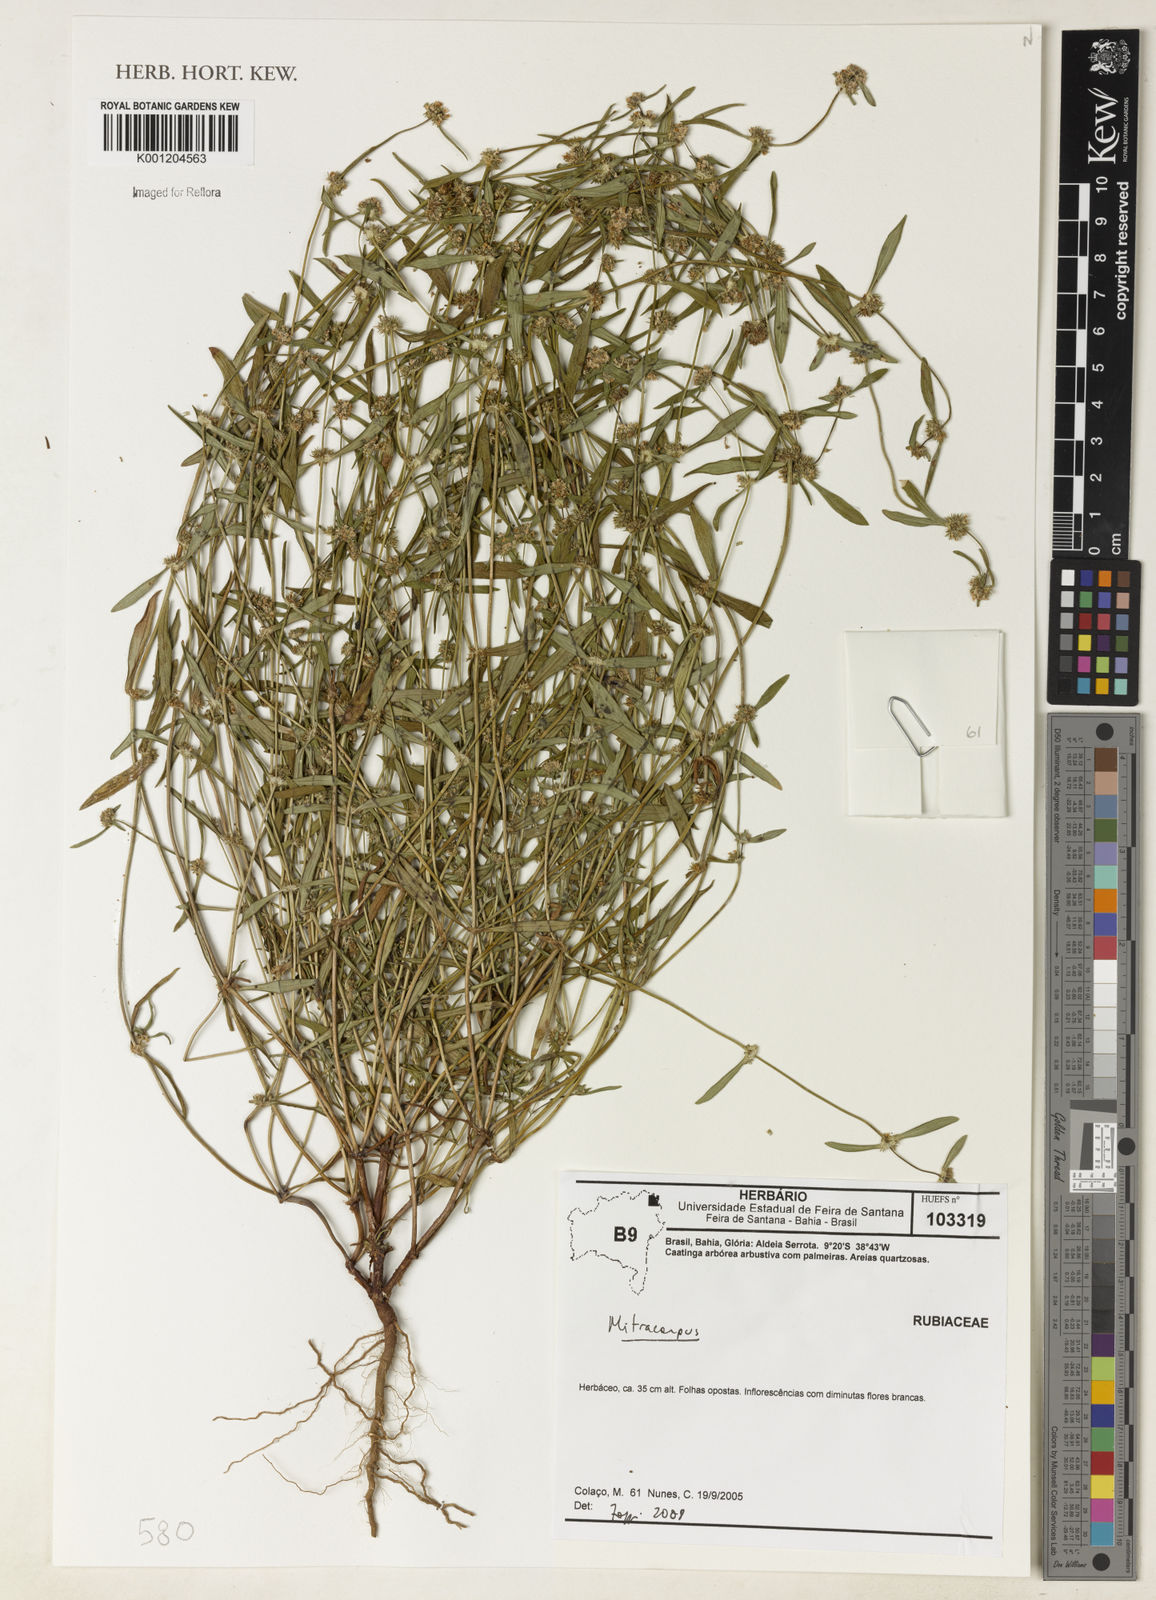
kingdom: Plantae
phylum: Tracheophyta
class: Magnoliopsida
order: Gentianales
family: Rubiaceae
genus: Mitracarpus
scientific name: Mitracarpus
